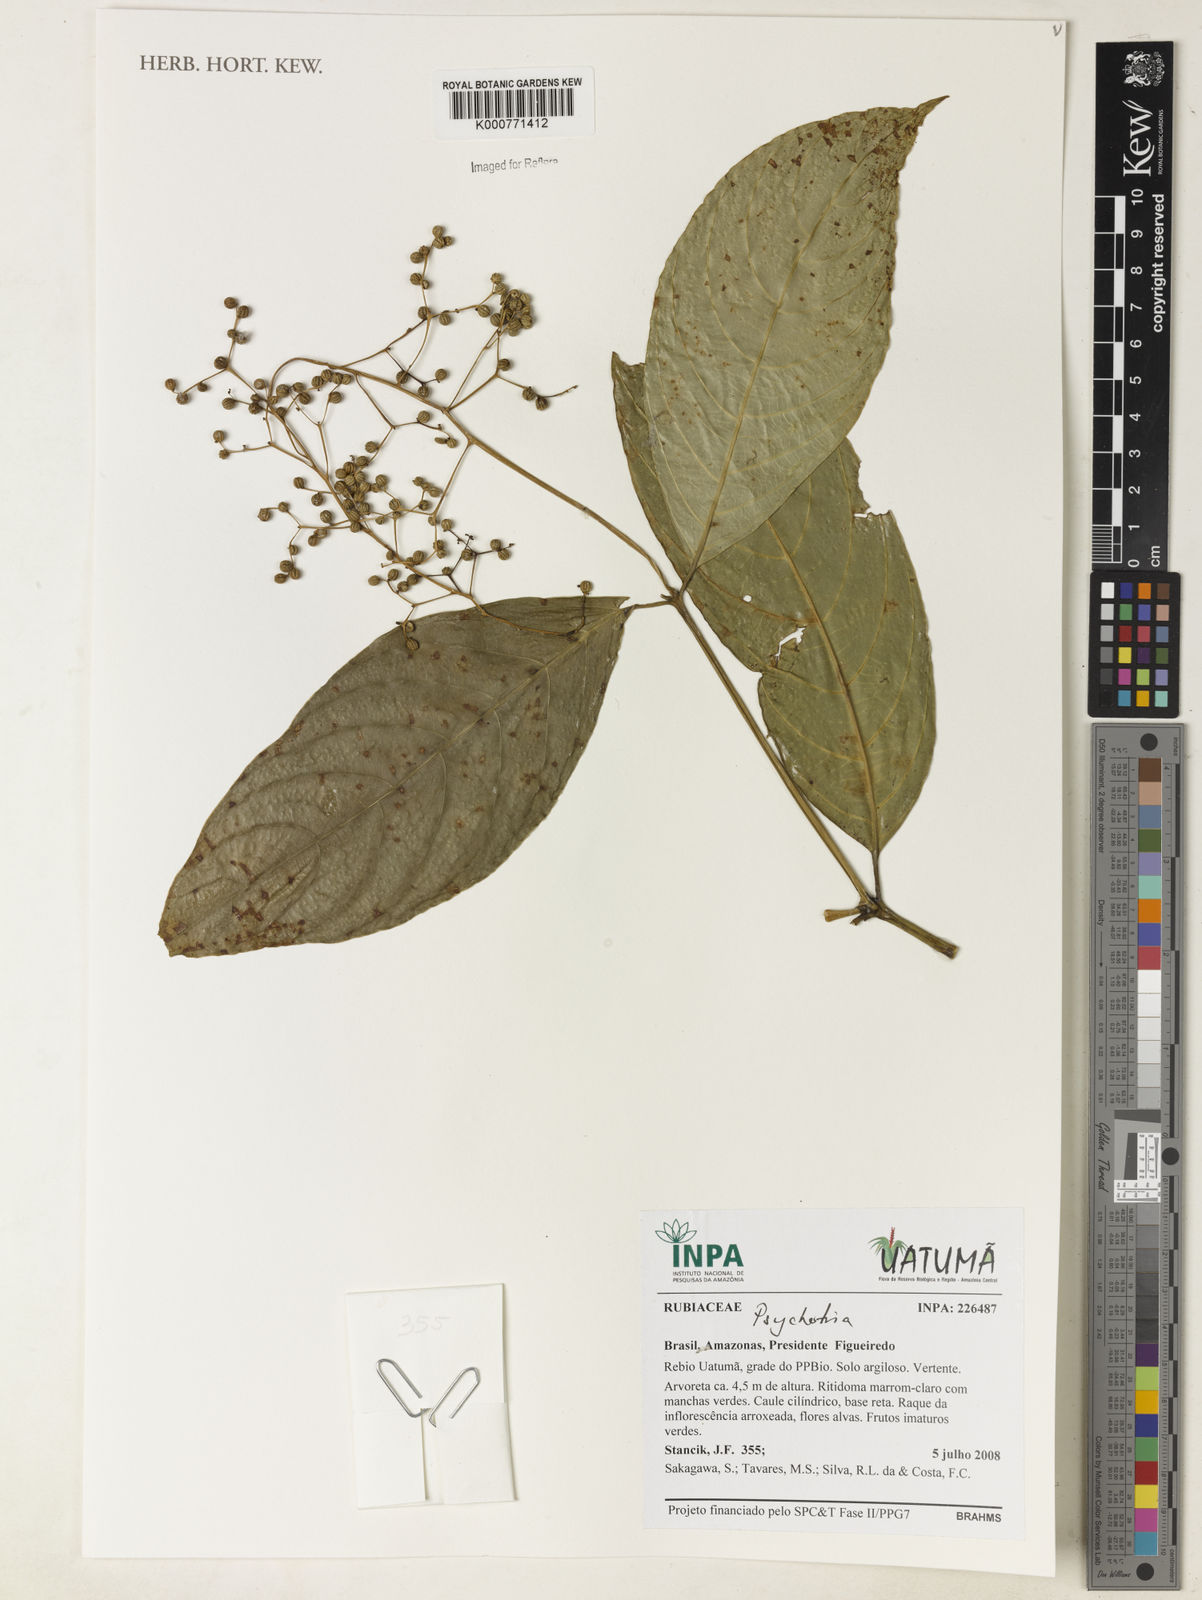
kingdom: Plantae
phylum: Tracheophyta
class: Magnoliopsida
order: Gentianales
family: Rubiaceae
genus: Psychotria
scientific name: Psychotria
